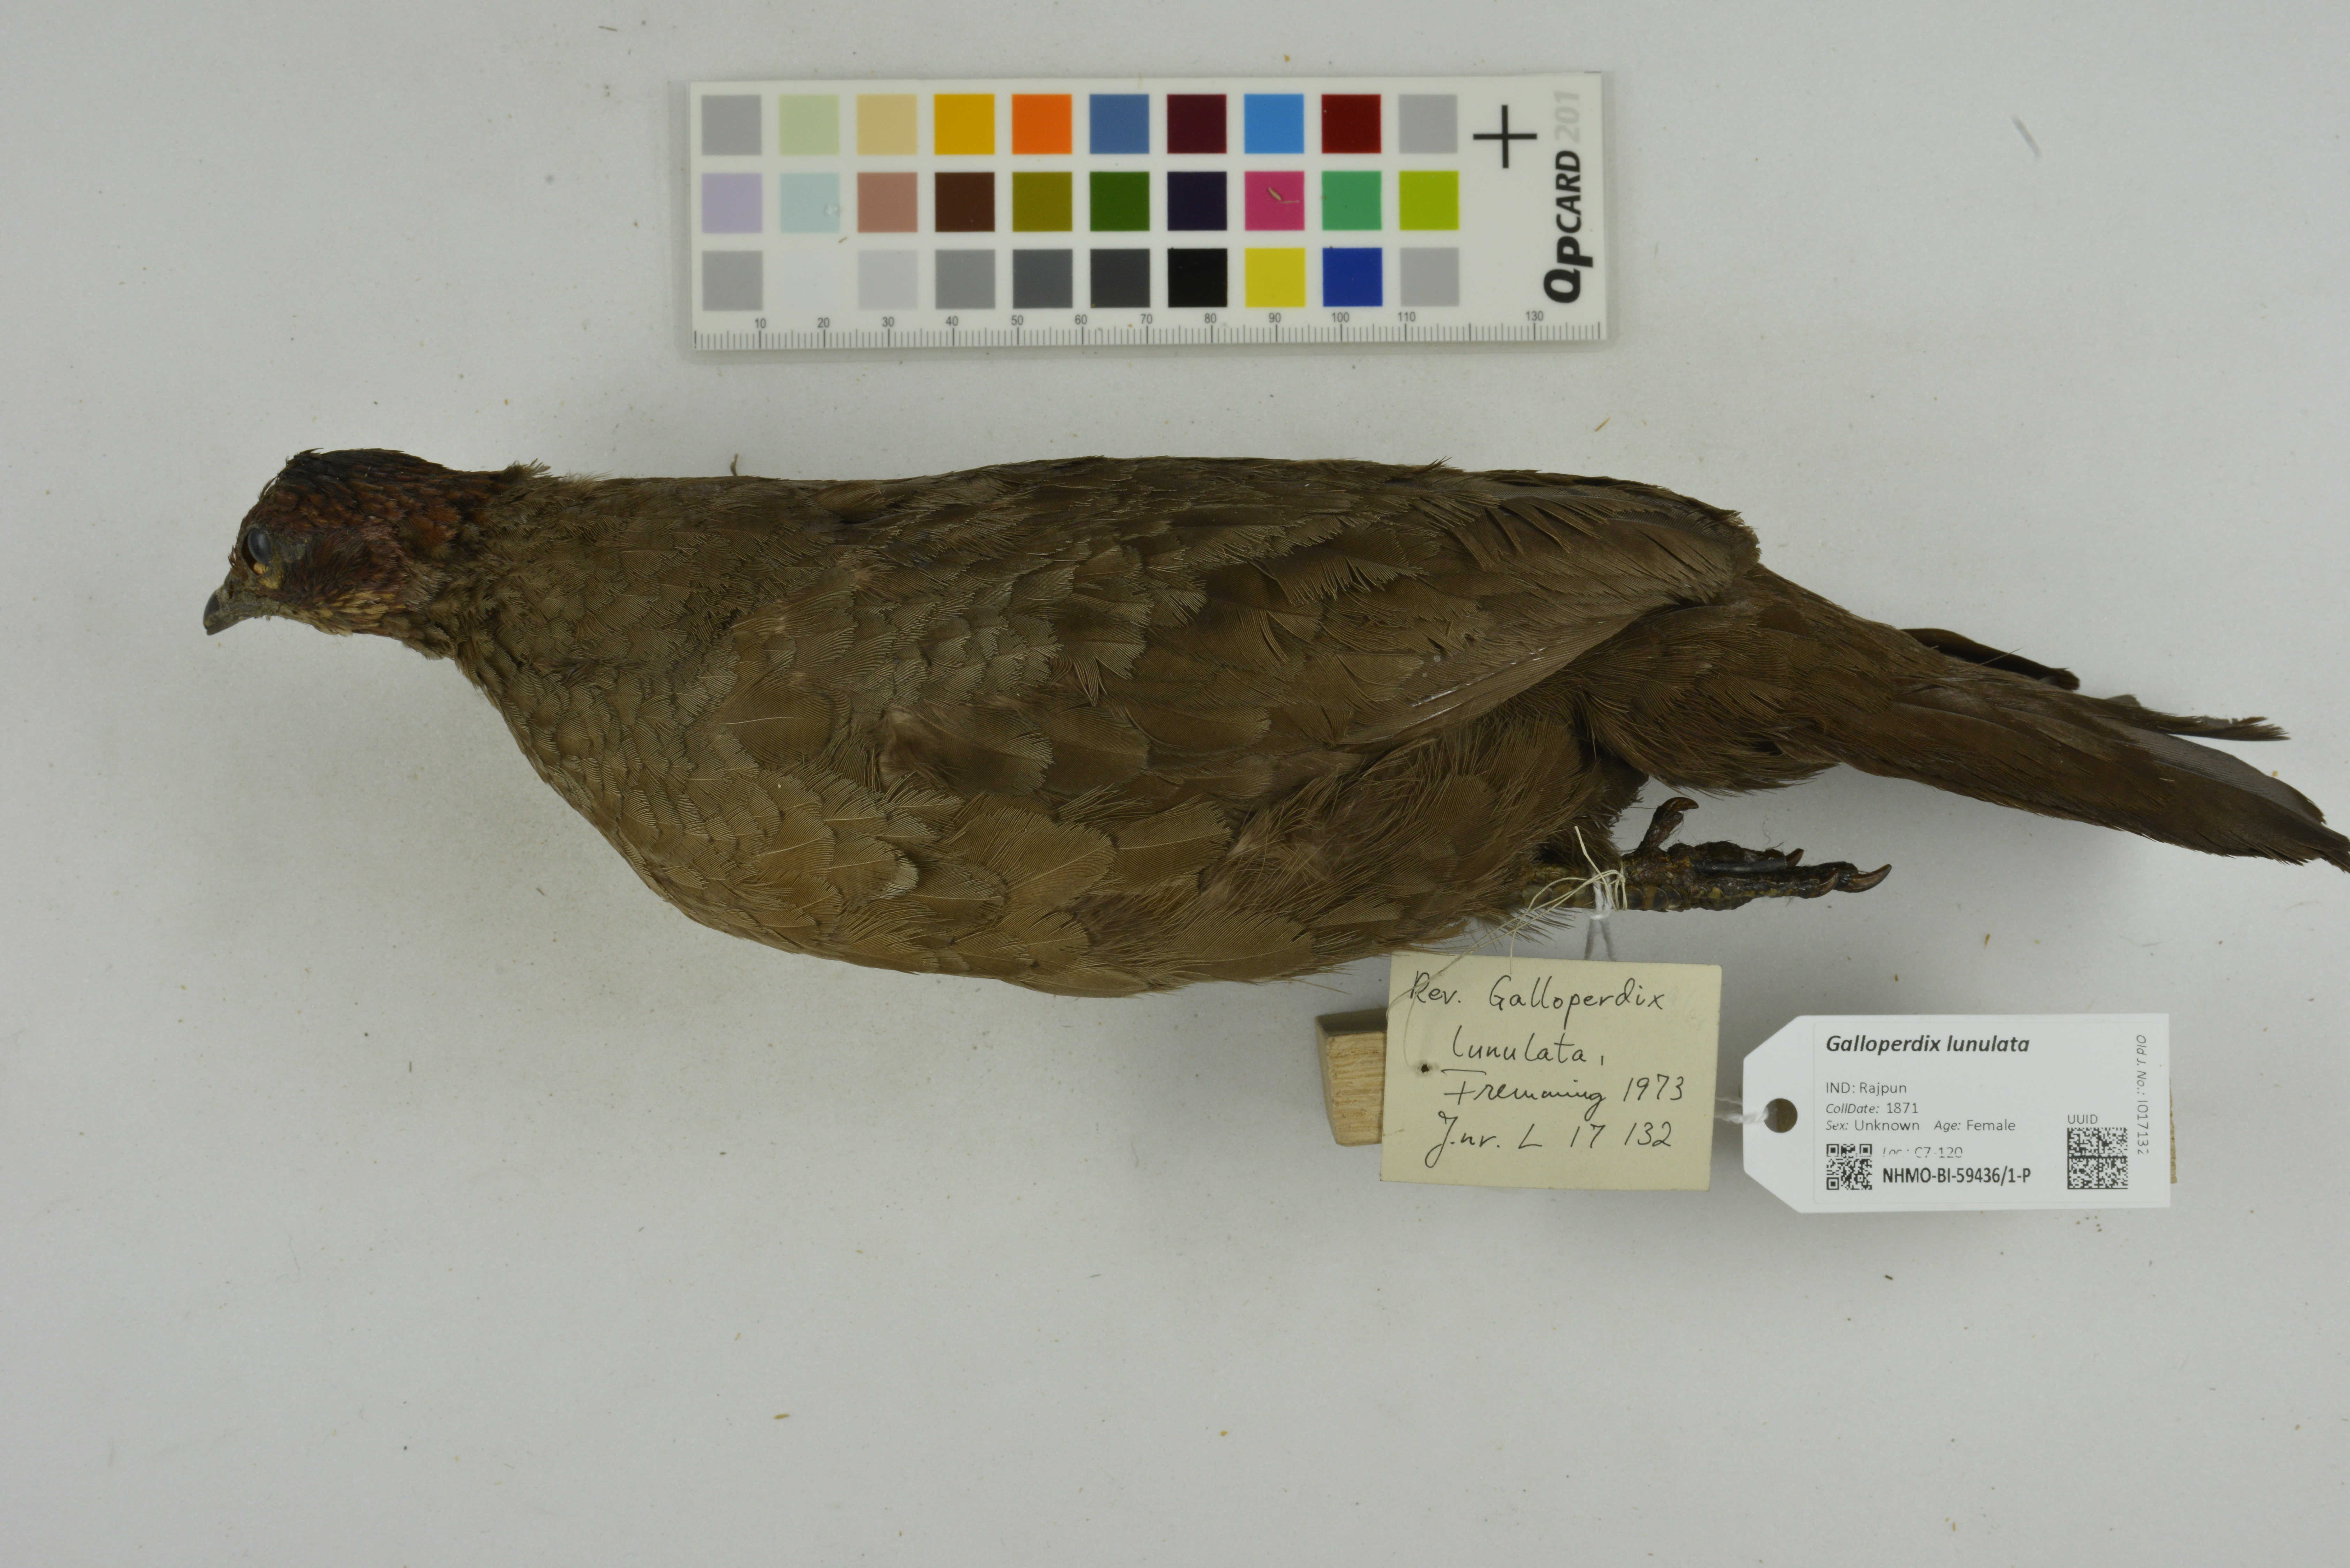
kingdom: Animalia
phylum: Chordata
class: Aves
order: Galliformes
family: Phasianidae
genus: Galloperdix
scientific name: Galloperdix lunulata
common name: Painted spurfowl
